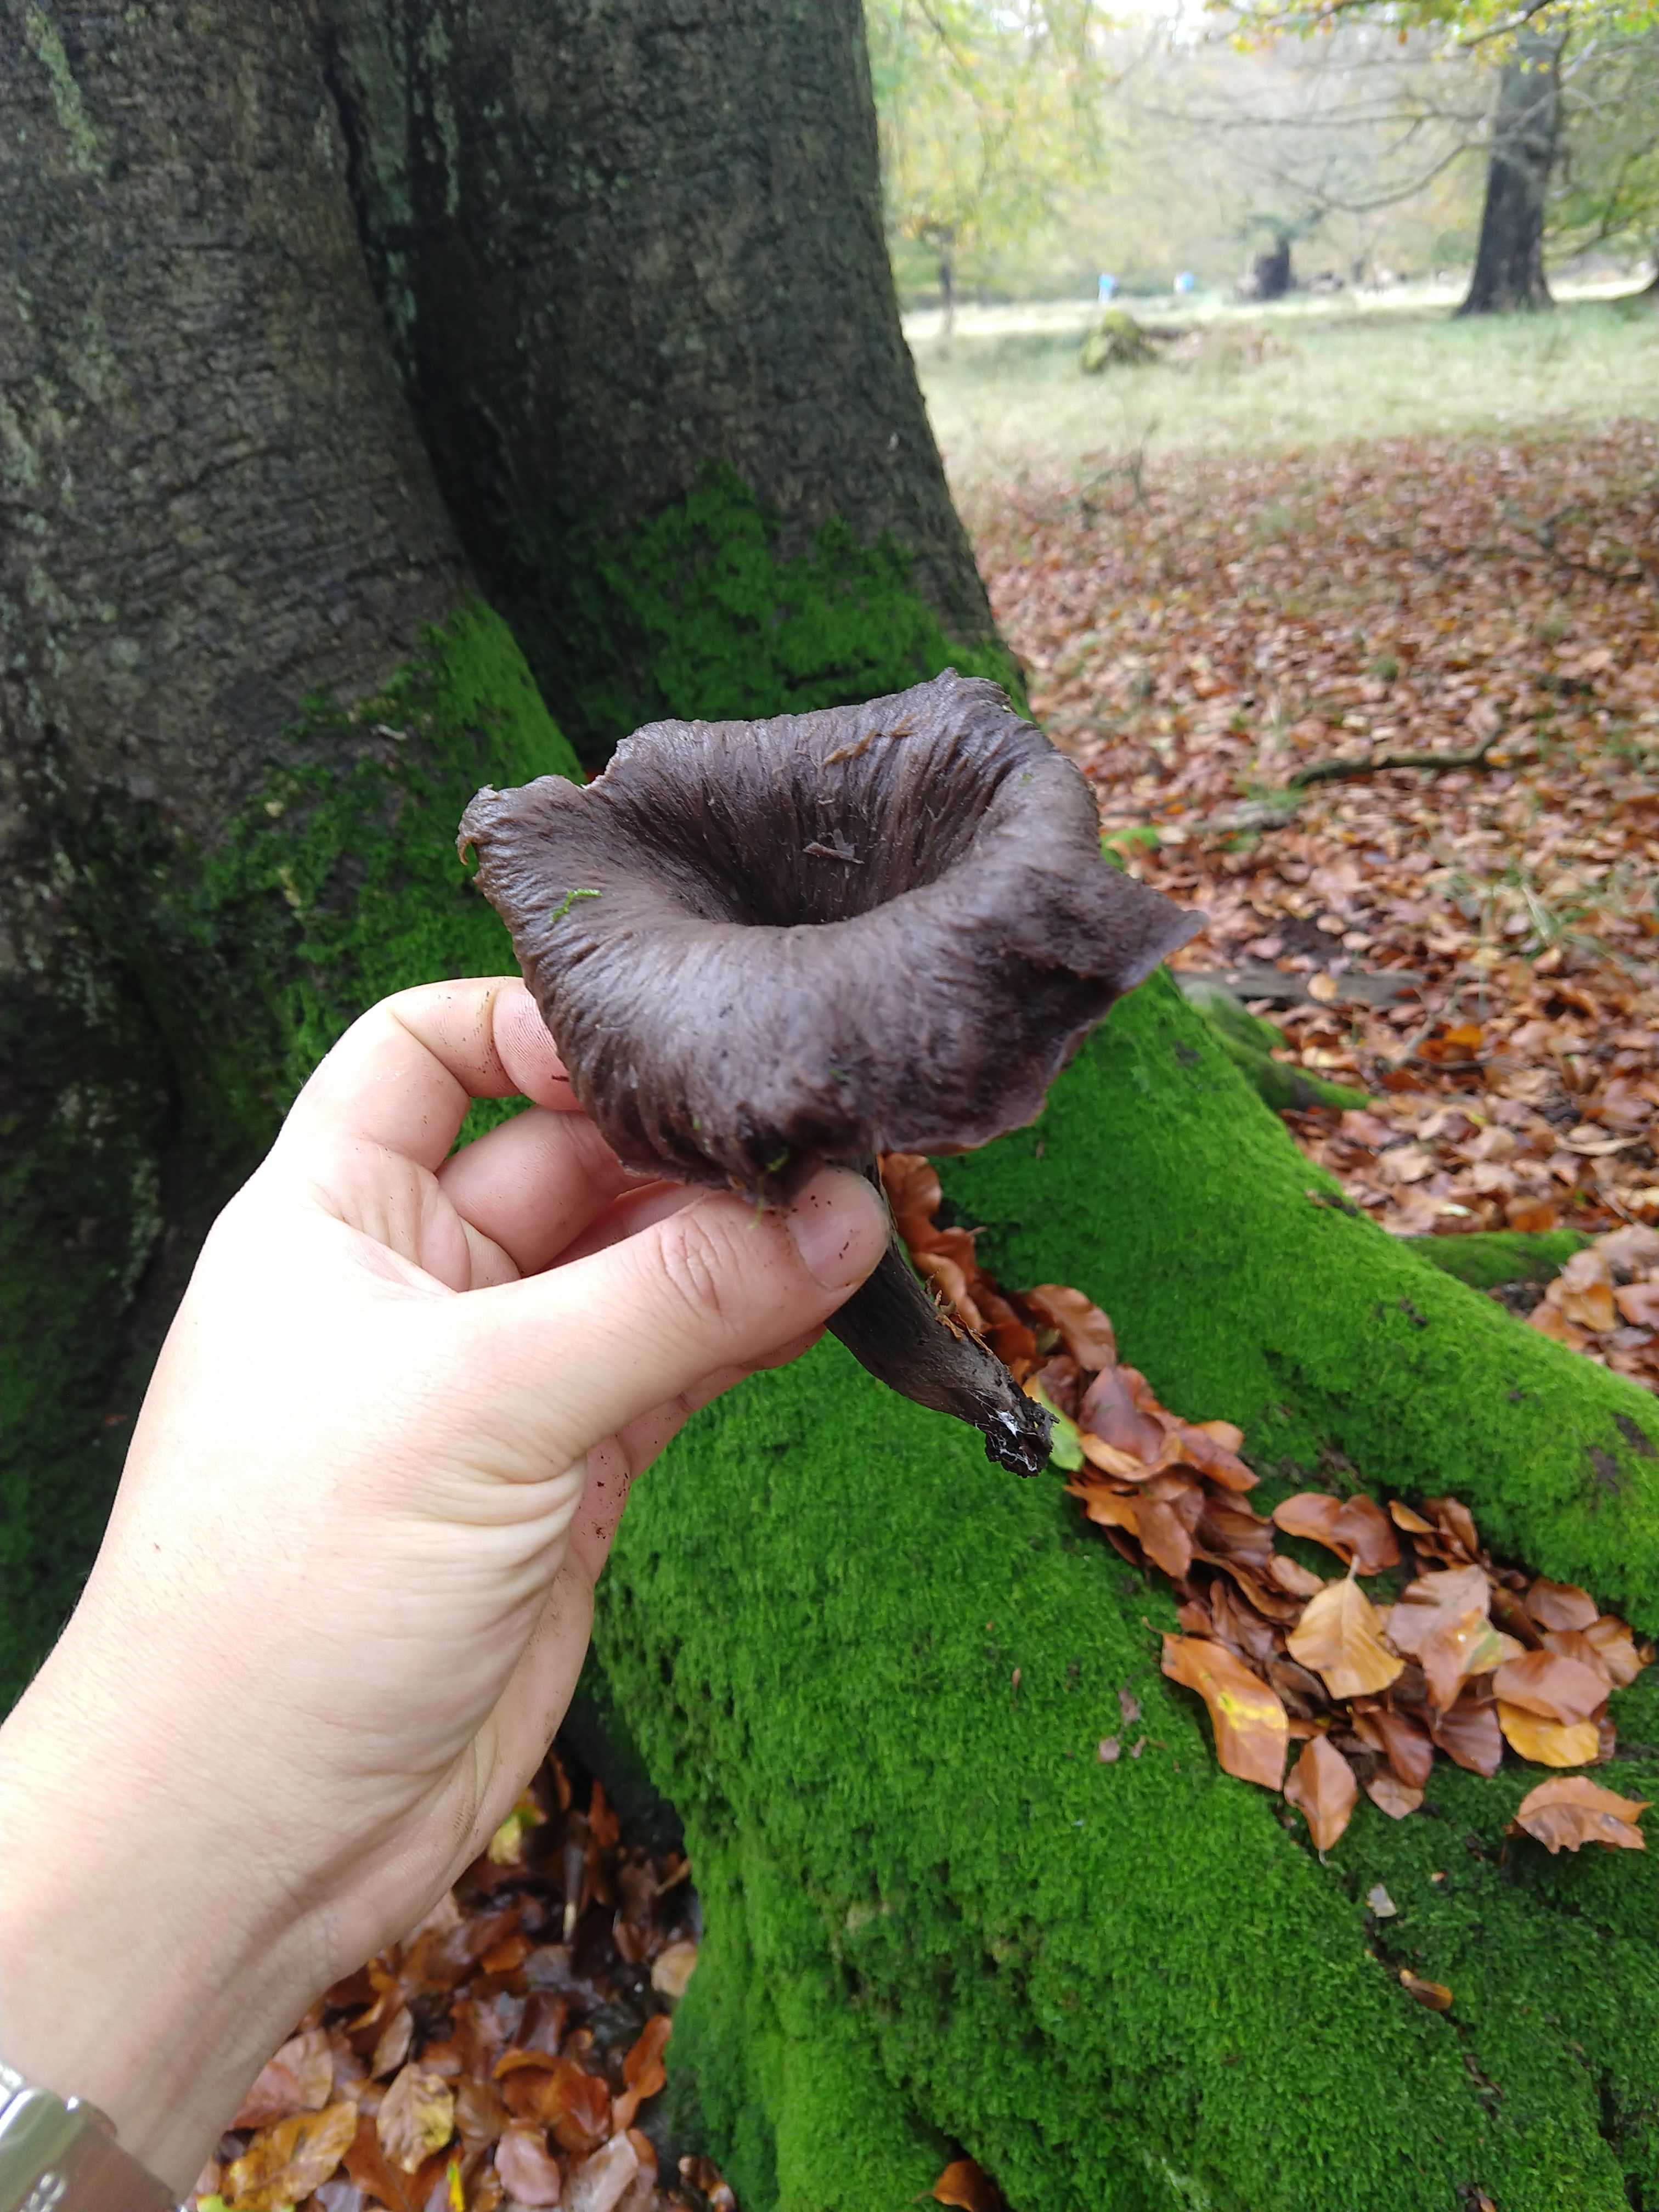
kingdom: Fungi
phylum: Basidiomycota
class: Agaricomycetes
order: Cantharellales
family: Hydnaceae
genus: Craterellus
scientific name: Craterellus cornucopioides
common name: trompetsvamp
